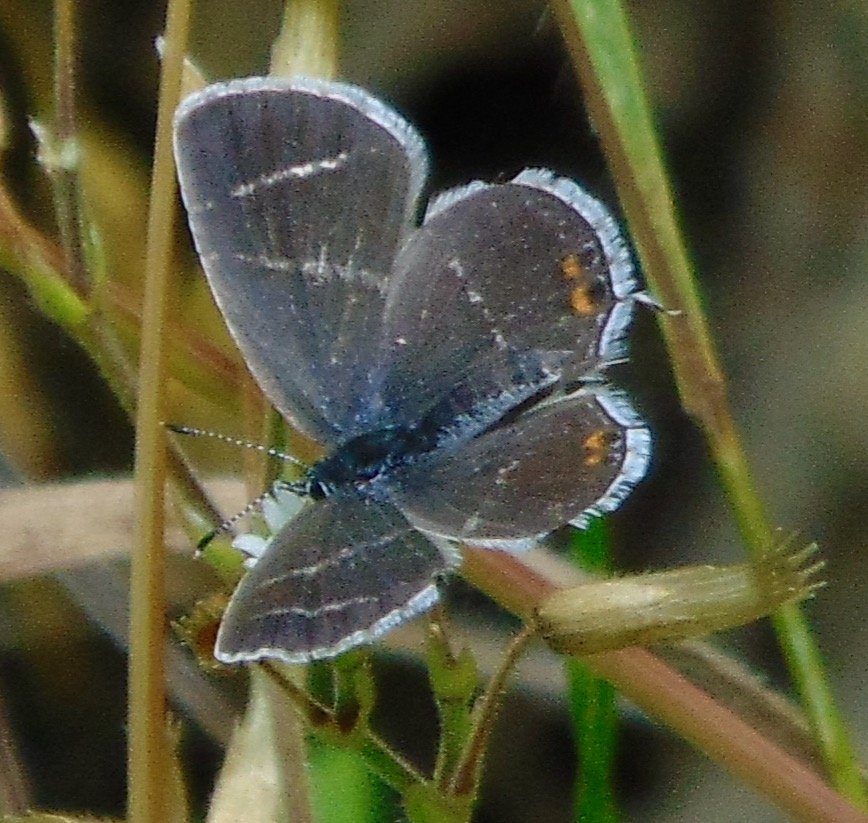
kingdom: Animalia
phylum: Arthropoda
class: Insecta
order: Lepidoptera
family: Lycaenidae
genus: Elkalyce
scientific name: Elkalyce comyntas
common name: Eastern Tailed-Blue
